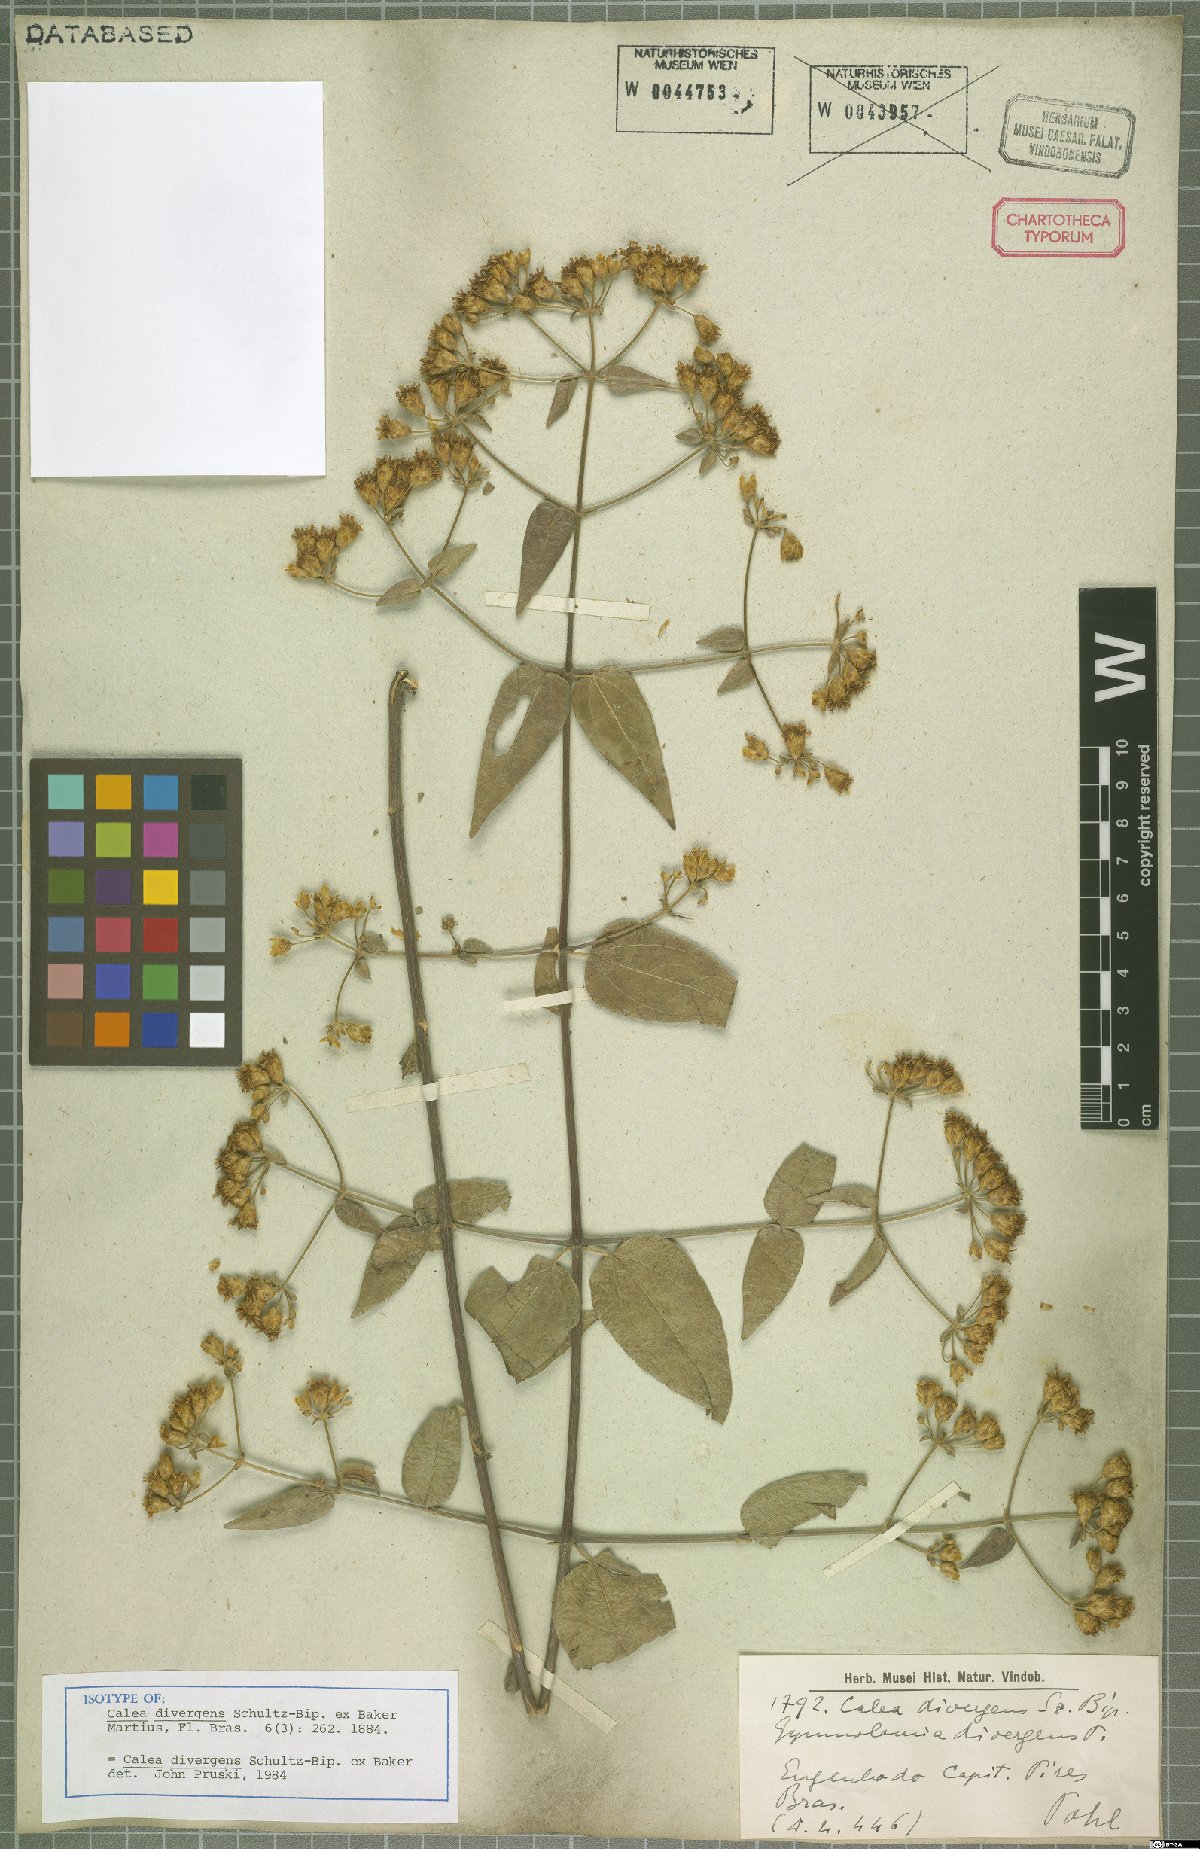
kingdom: Plantae
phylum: Tracheophyta
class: Magnoliopsida
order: Asterales
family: Asteraceae
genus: Calea
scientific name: Calea divergens
